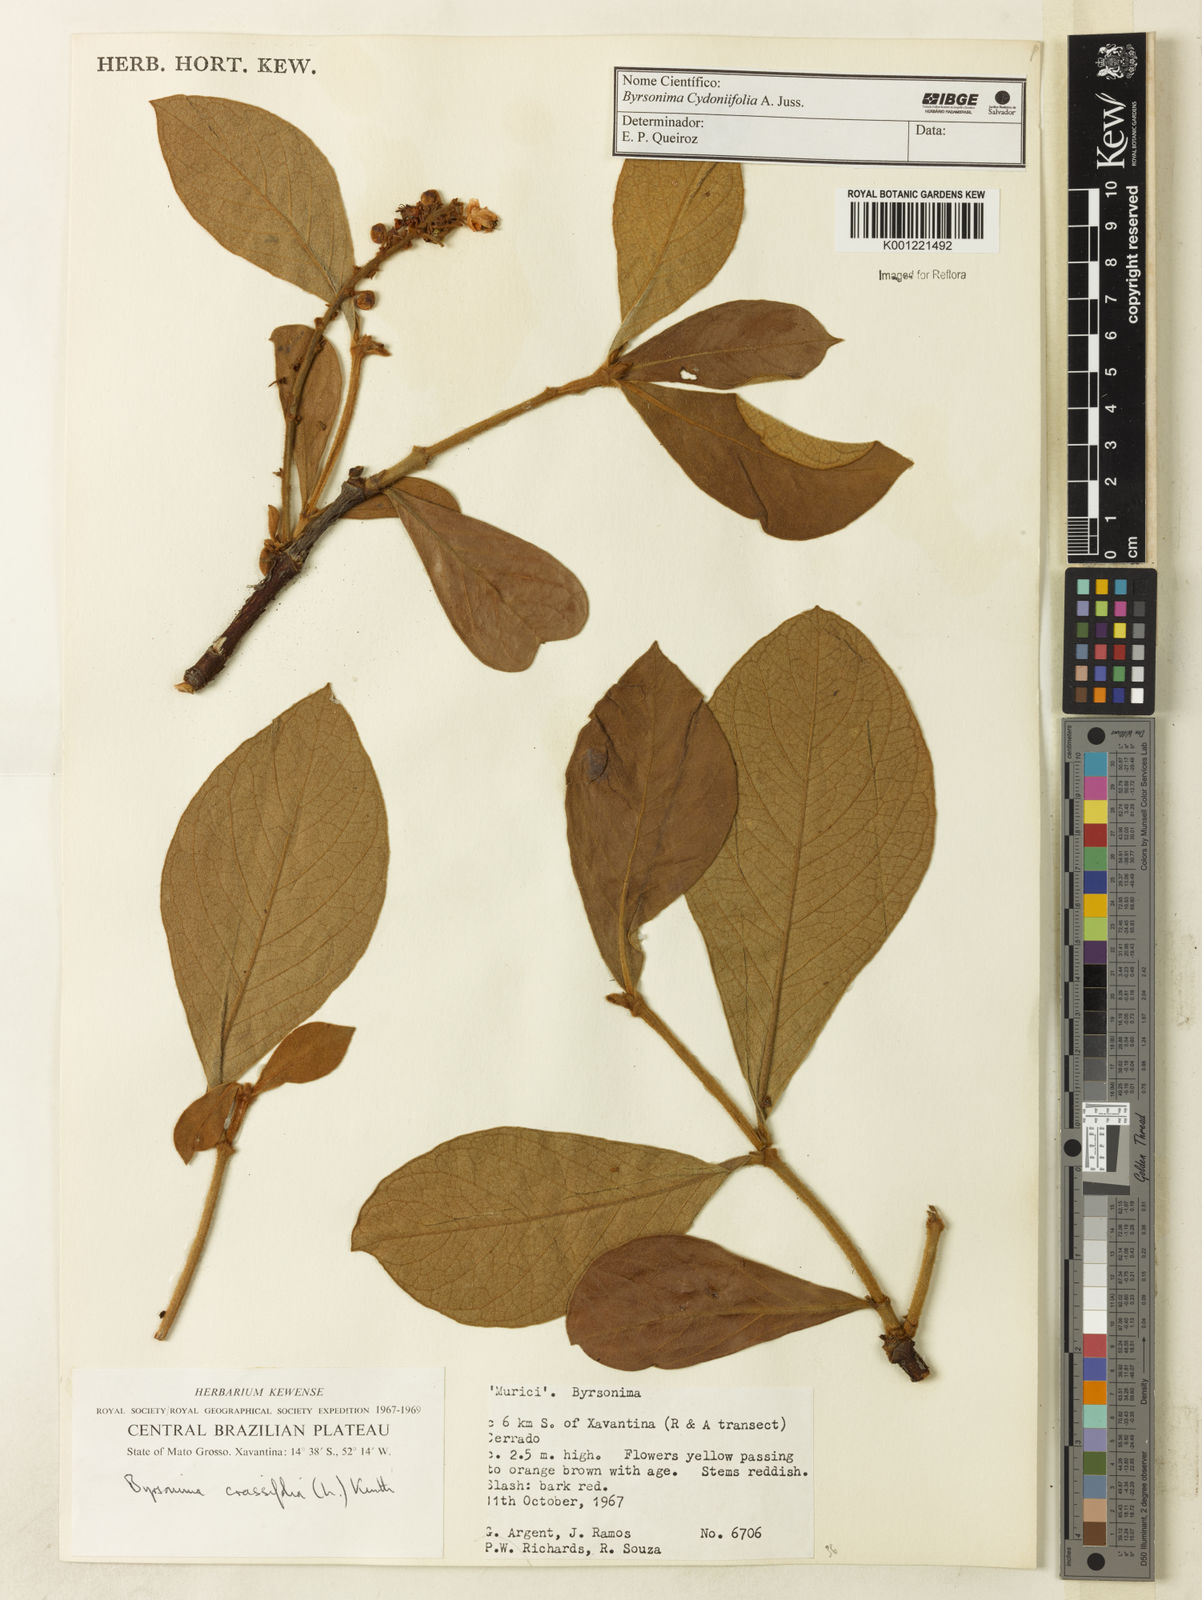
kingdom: Plantae
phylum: Tracheophyta
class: Magnoliopsida
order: Malpighiales
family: Malpighiaceae
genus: Byrsonima
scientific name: Byrsonima cydoniifolia
